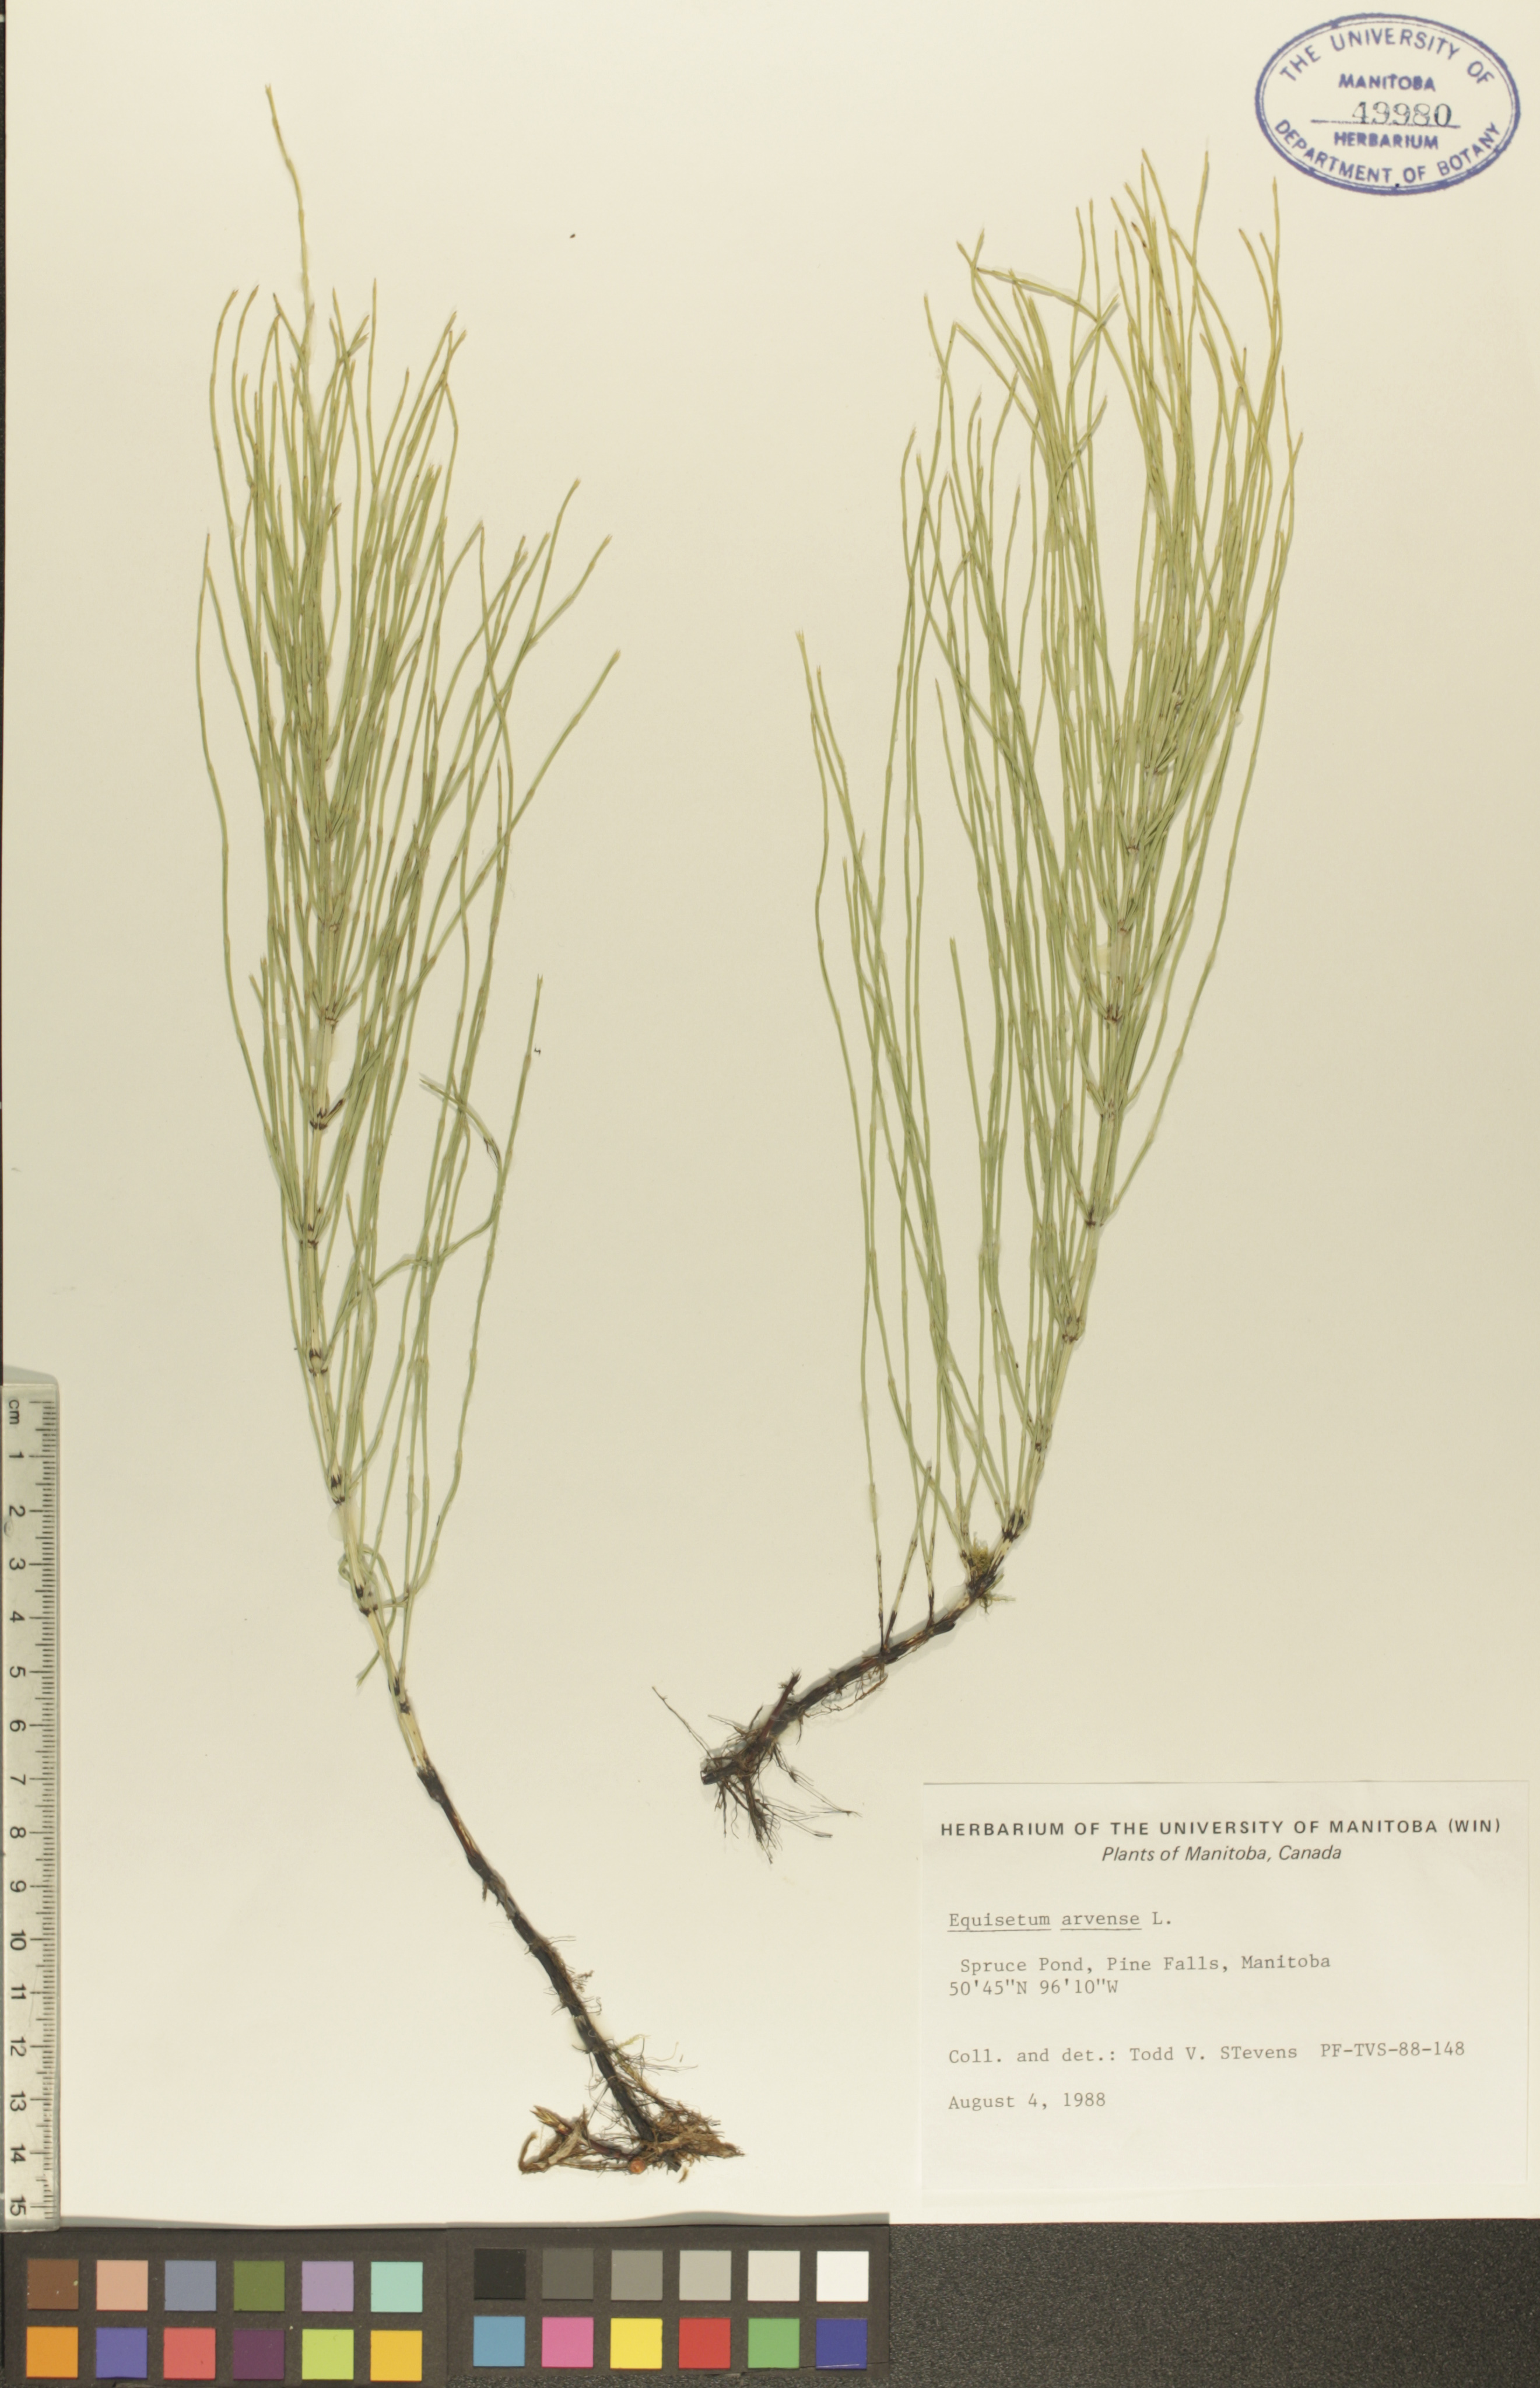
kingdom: Plantae
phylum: Tracheophyta
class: Polypodiopsida
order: Equisetales
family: Equisetaceae
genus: Equisetum
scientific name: Equisetum arvense
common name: Field horsetail
